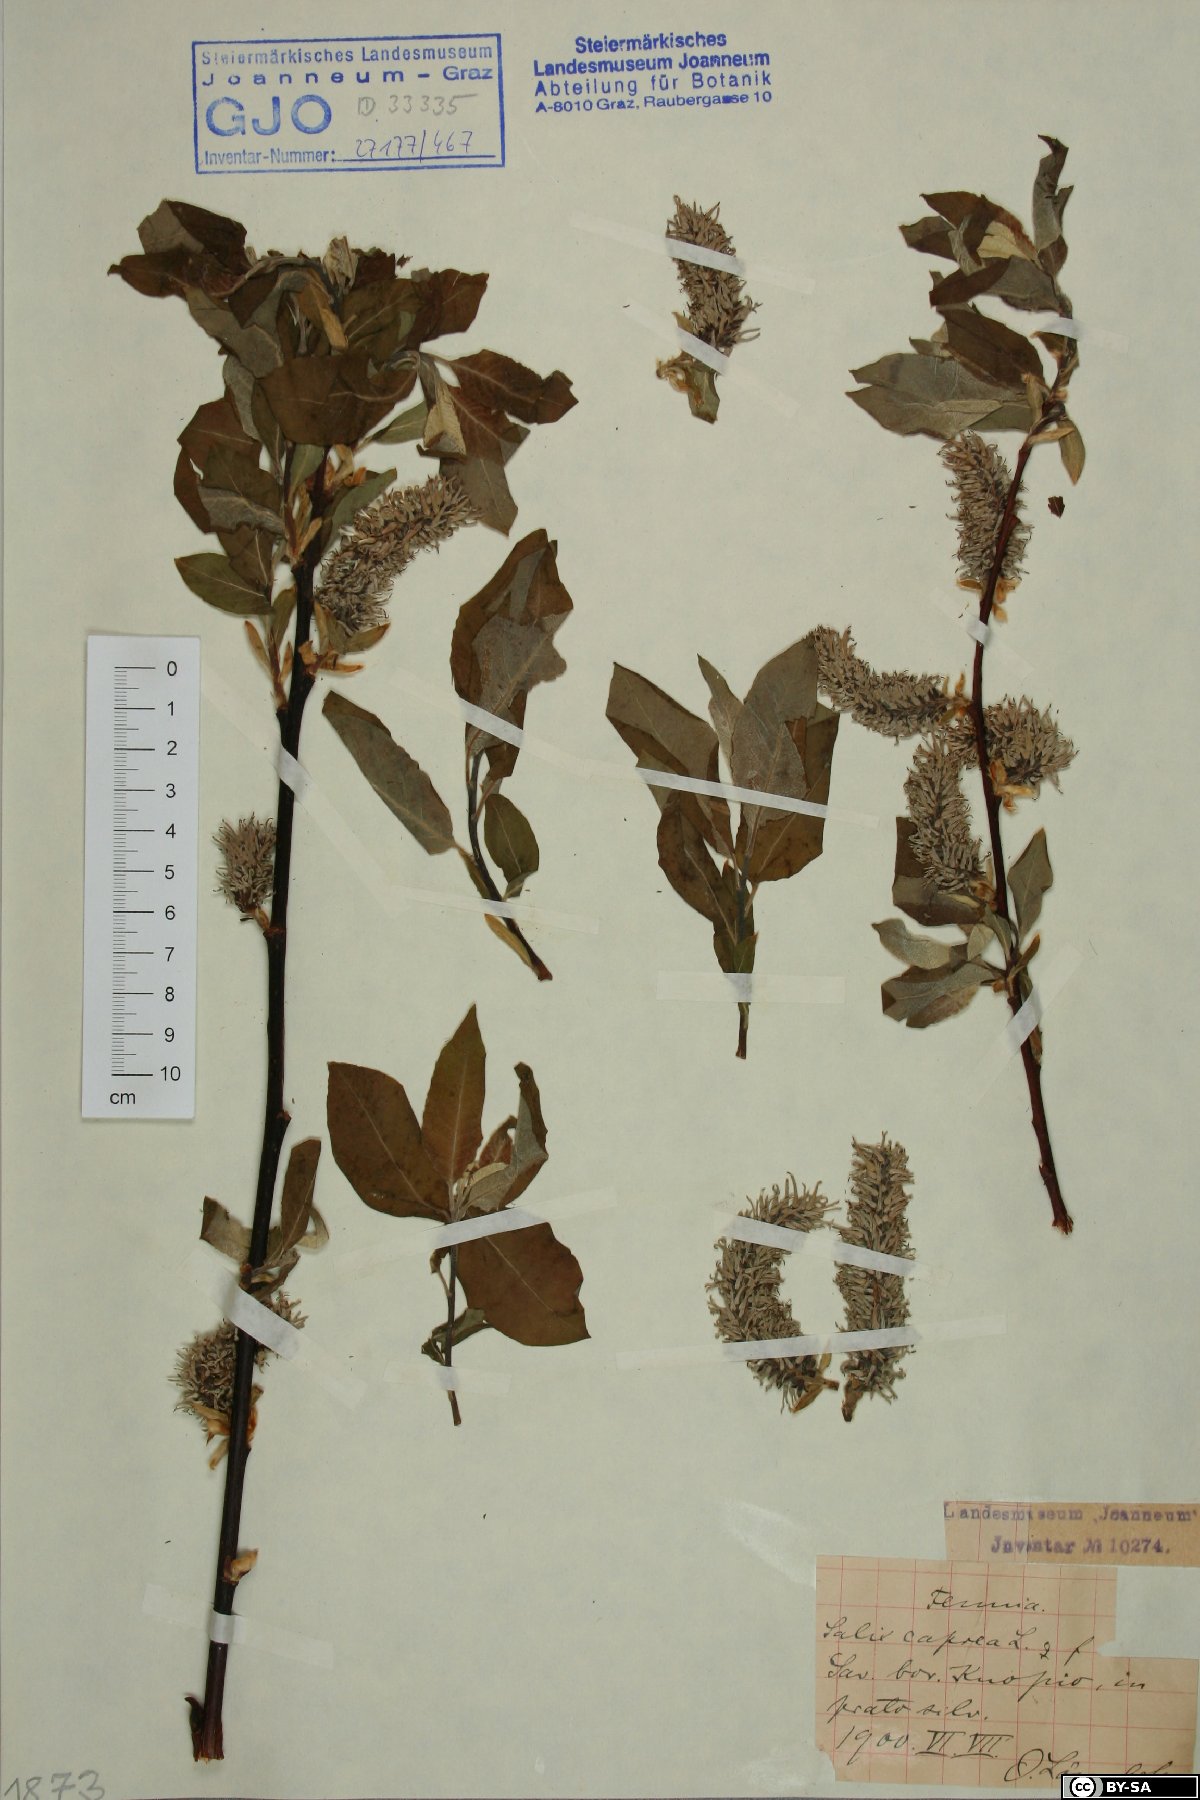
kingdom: Plantae
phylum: Tracheophyta
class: Magnoliopsida
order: Malpighiales
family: Salicaceae
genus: Salix
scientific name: Salix caprea
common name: Goat willow
